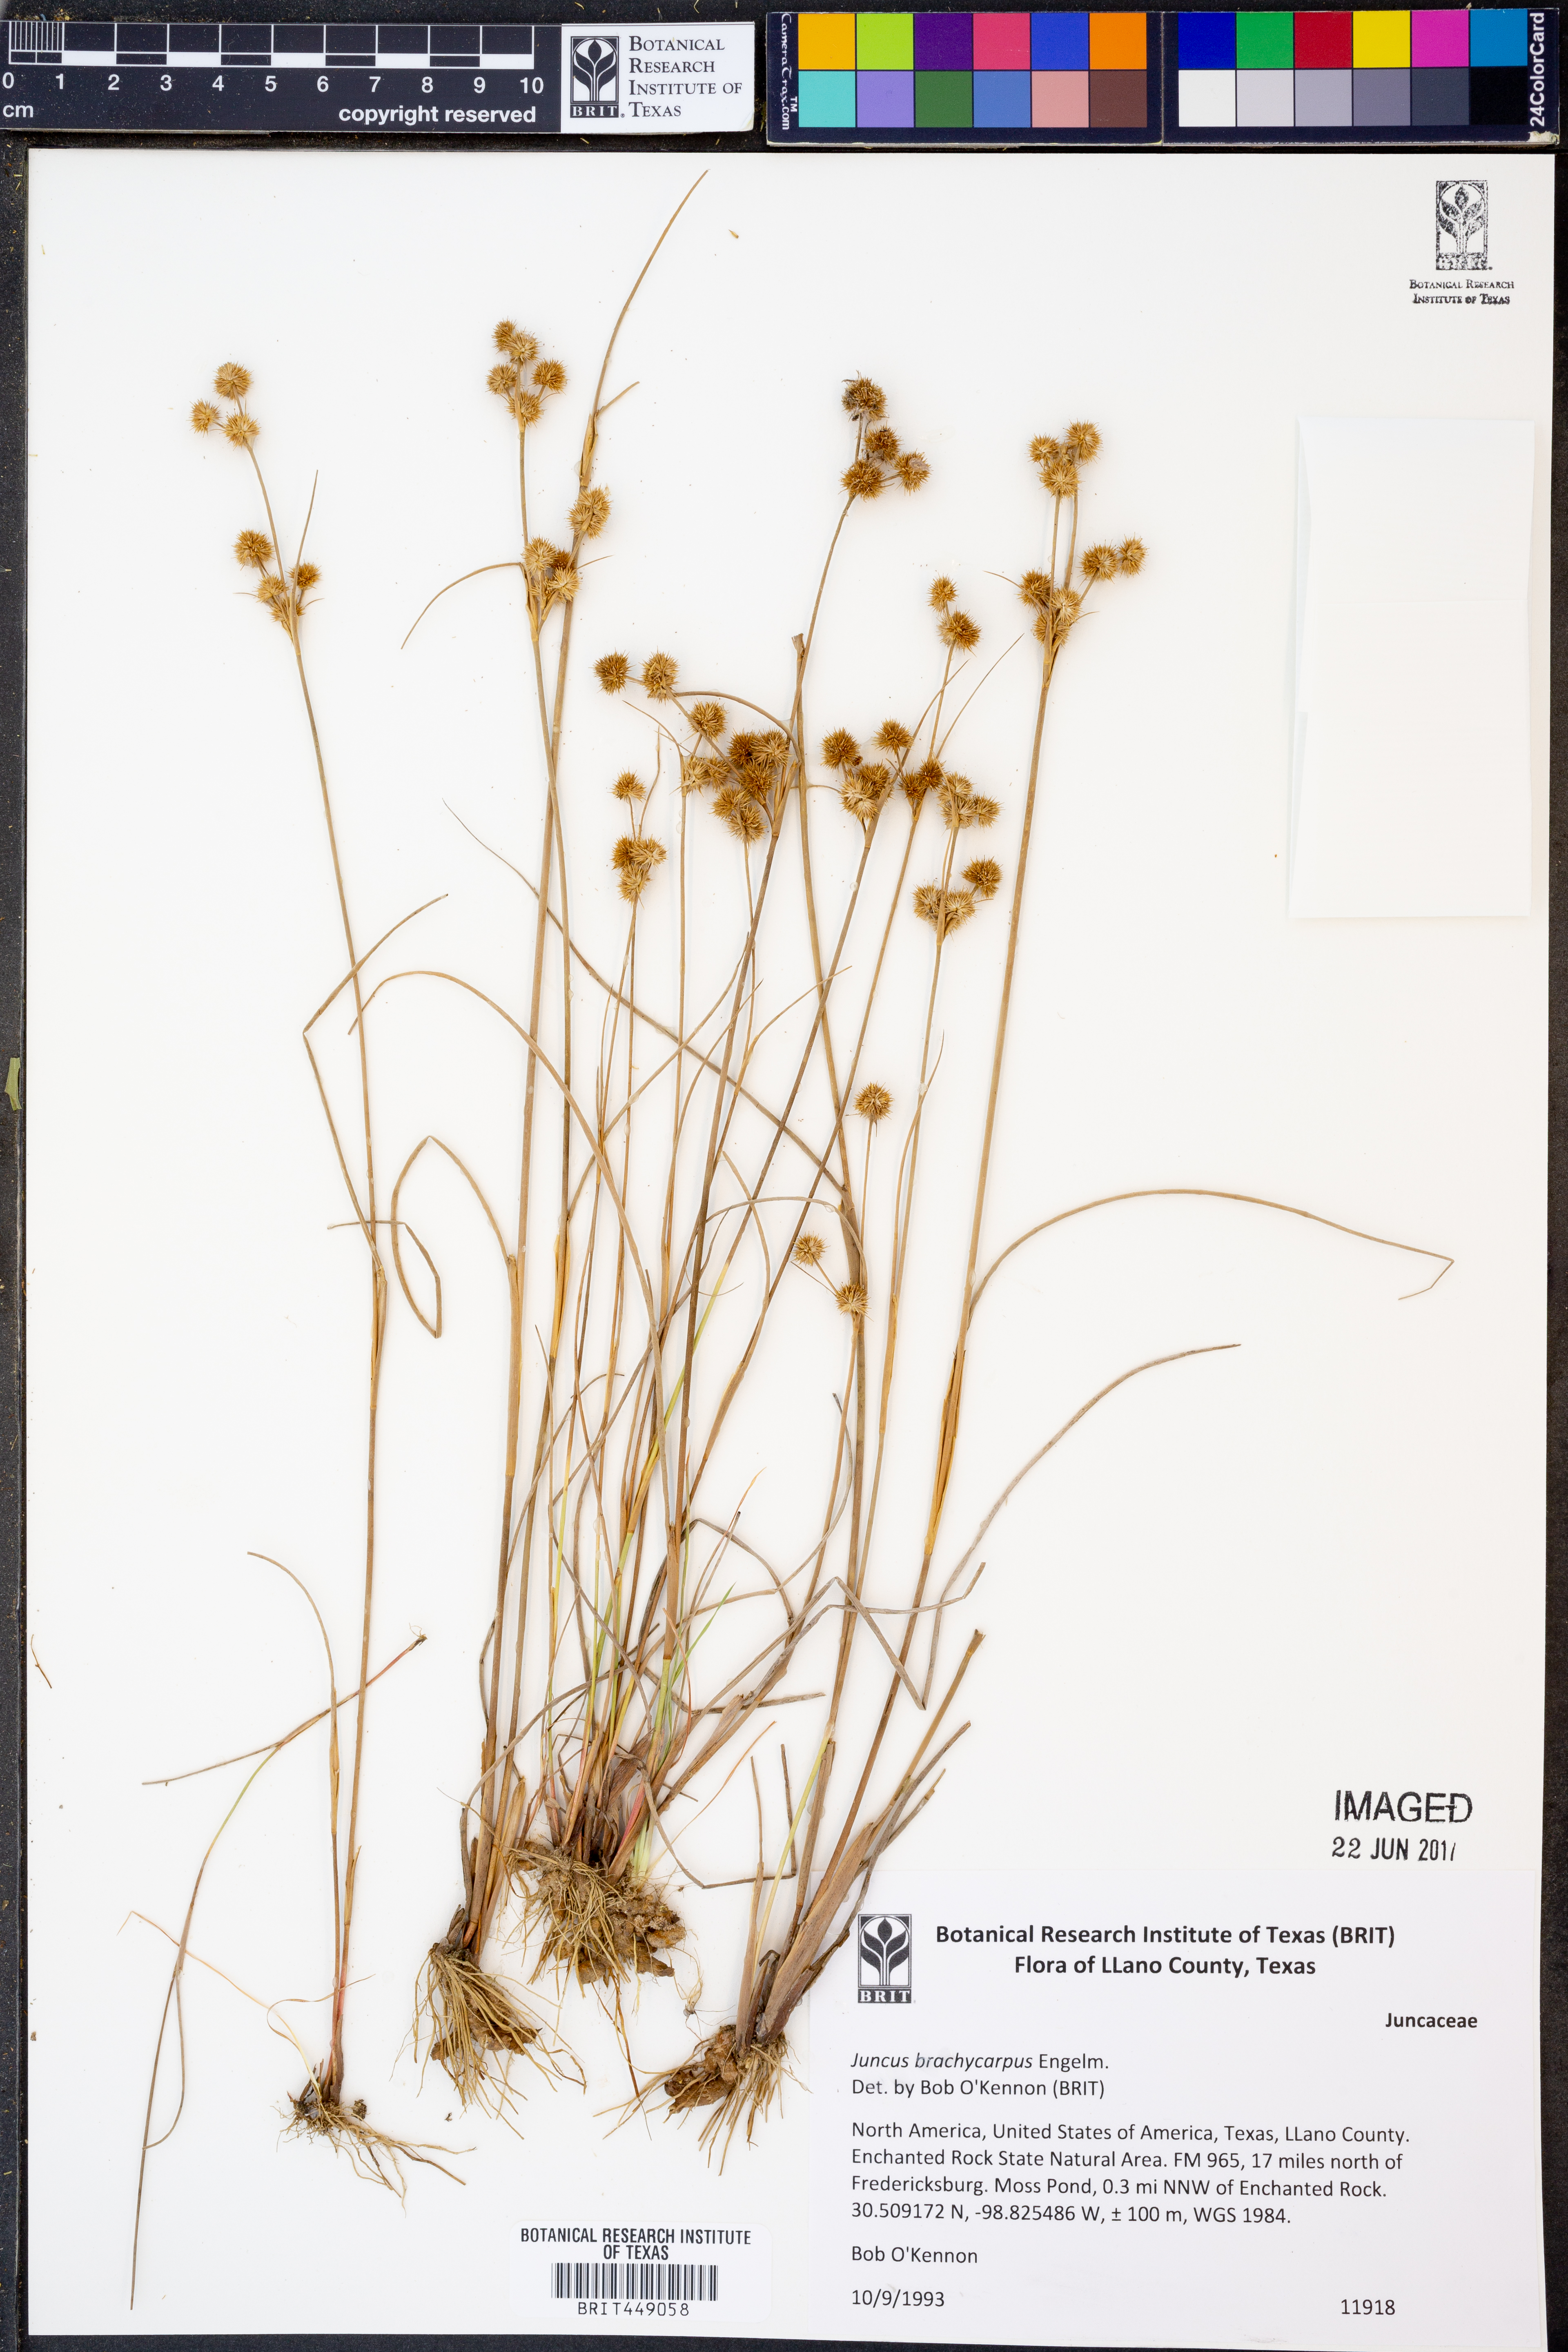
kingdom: Plantae
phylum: Tracheophyta
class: Liliopsida
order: Poales
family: Juncaceae
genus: Juncus
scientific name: Juncus brachycarpus
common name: Shore rush
